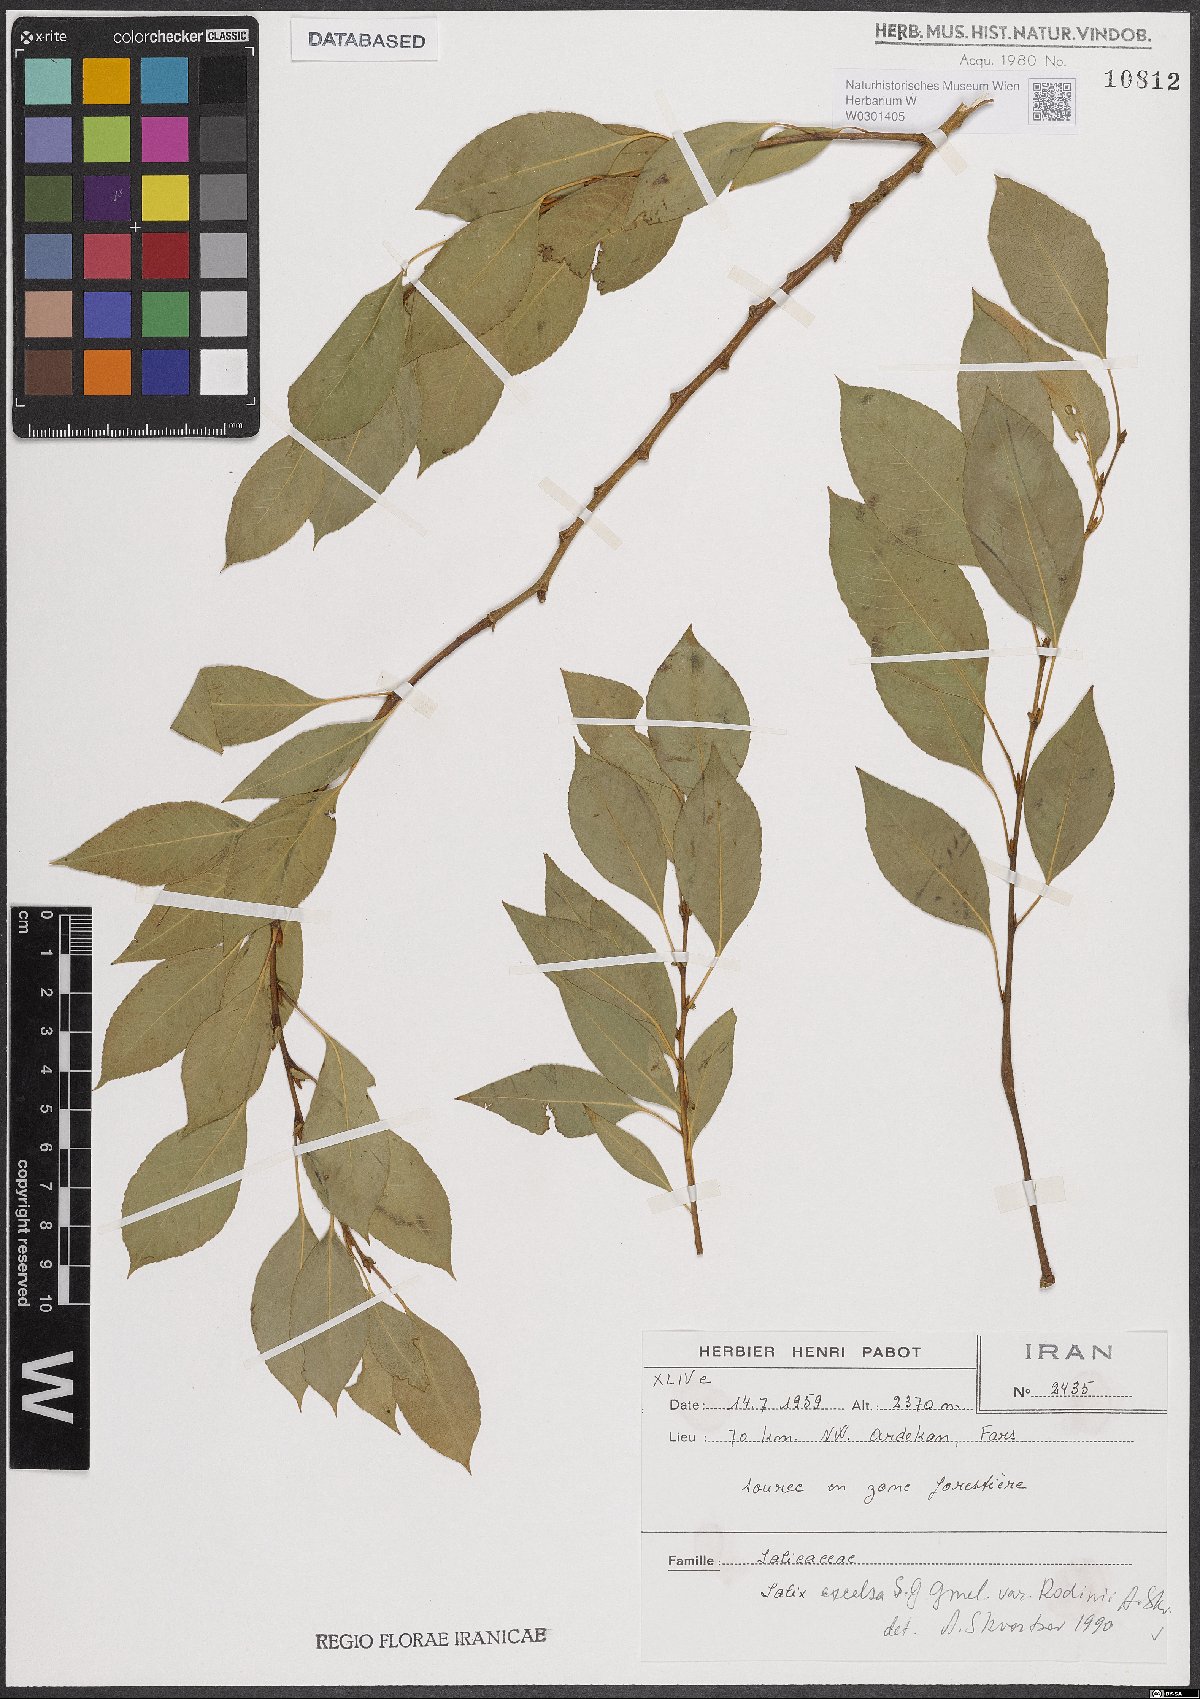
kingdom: Plantae
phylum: Tracheophyta
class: Magnoliopsida
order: Malpighiales
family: Salicaceae
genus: Salix
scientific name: Salix excelsa
